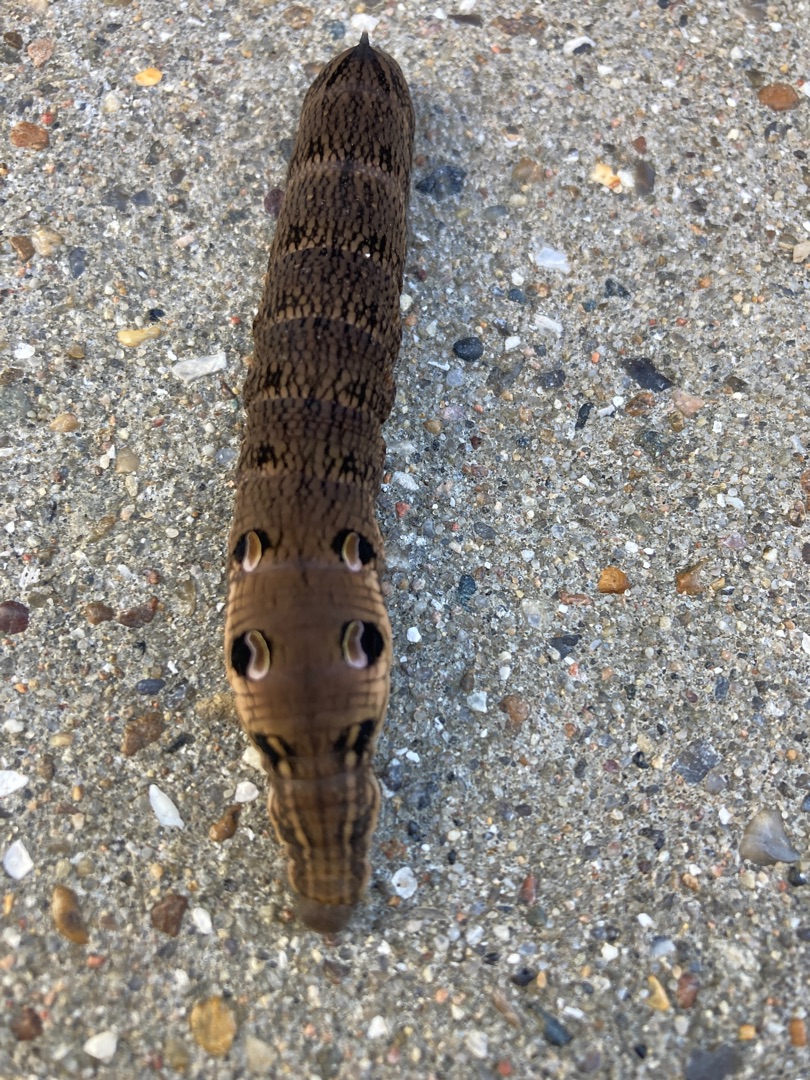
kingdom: Animalia
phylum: Arthropoda
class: Insecta
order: Lepidoptera
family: Sphingidae
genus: Deilephila
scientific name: Deilephila elpenor
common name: Dueurtsværmer
